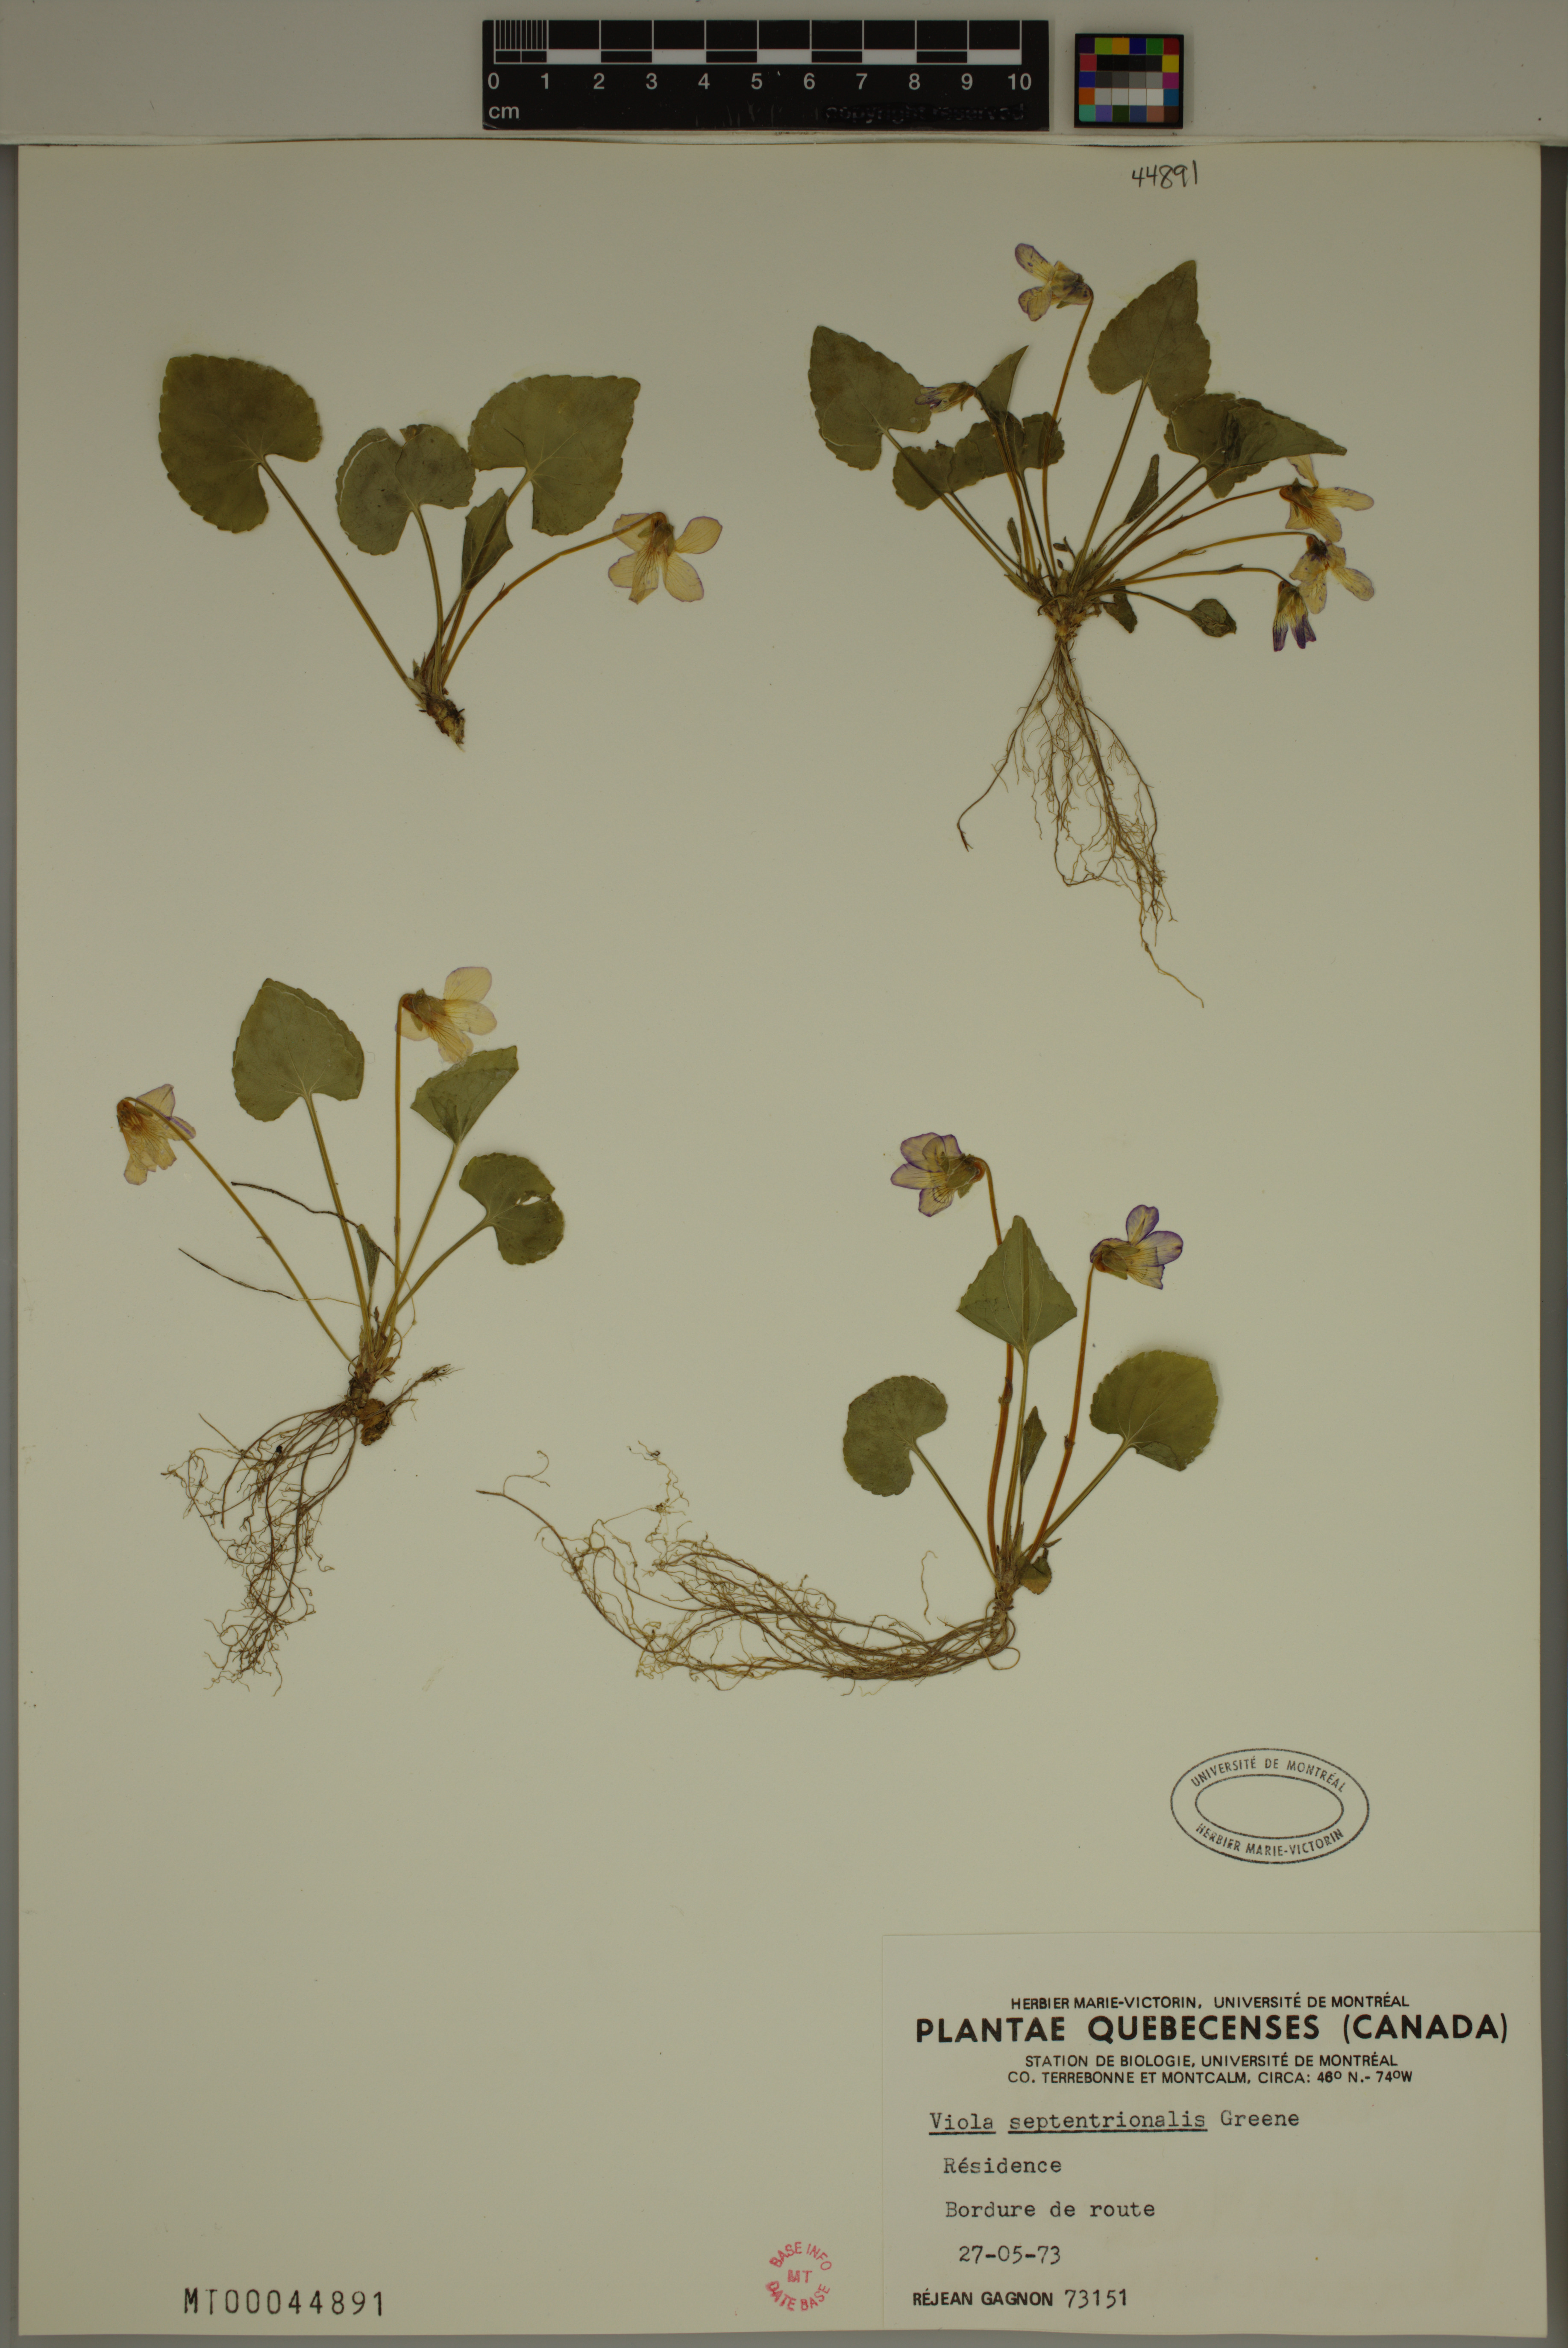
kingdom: Plantae
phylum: Tracheophyta
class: Magnoliopsida
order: Malpighiales
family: Violaceae
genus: Viola
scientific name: Viola sororia
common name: Dooryard violet
